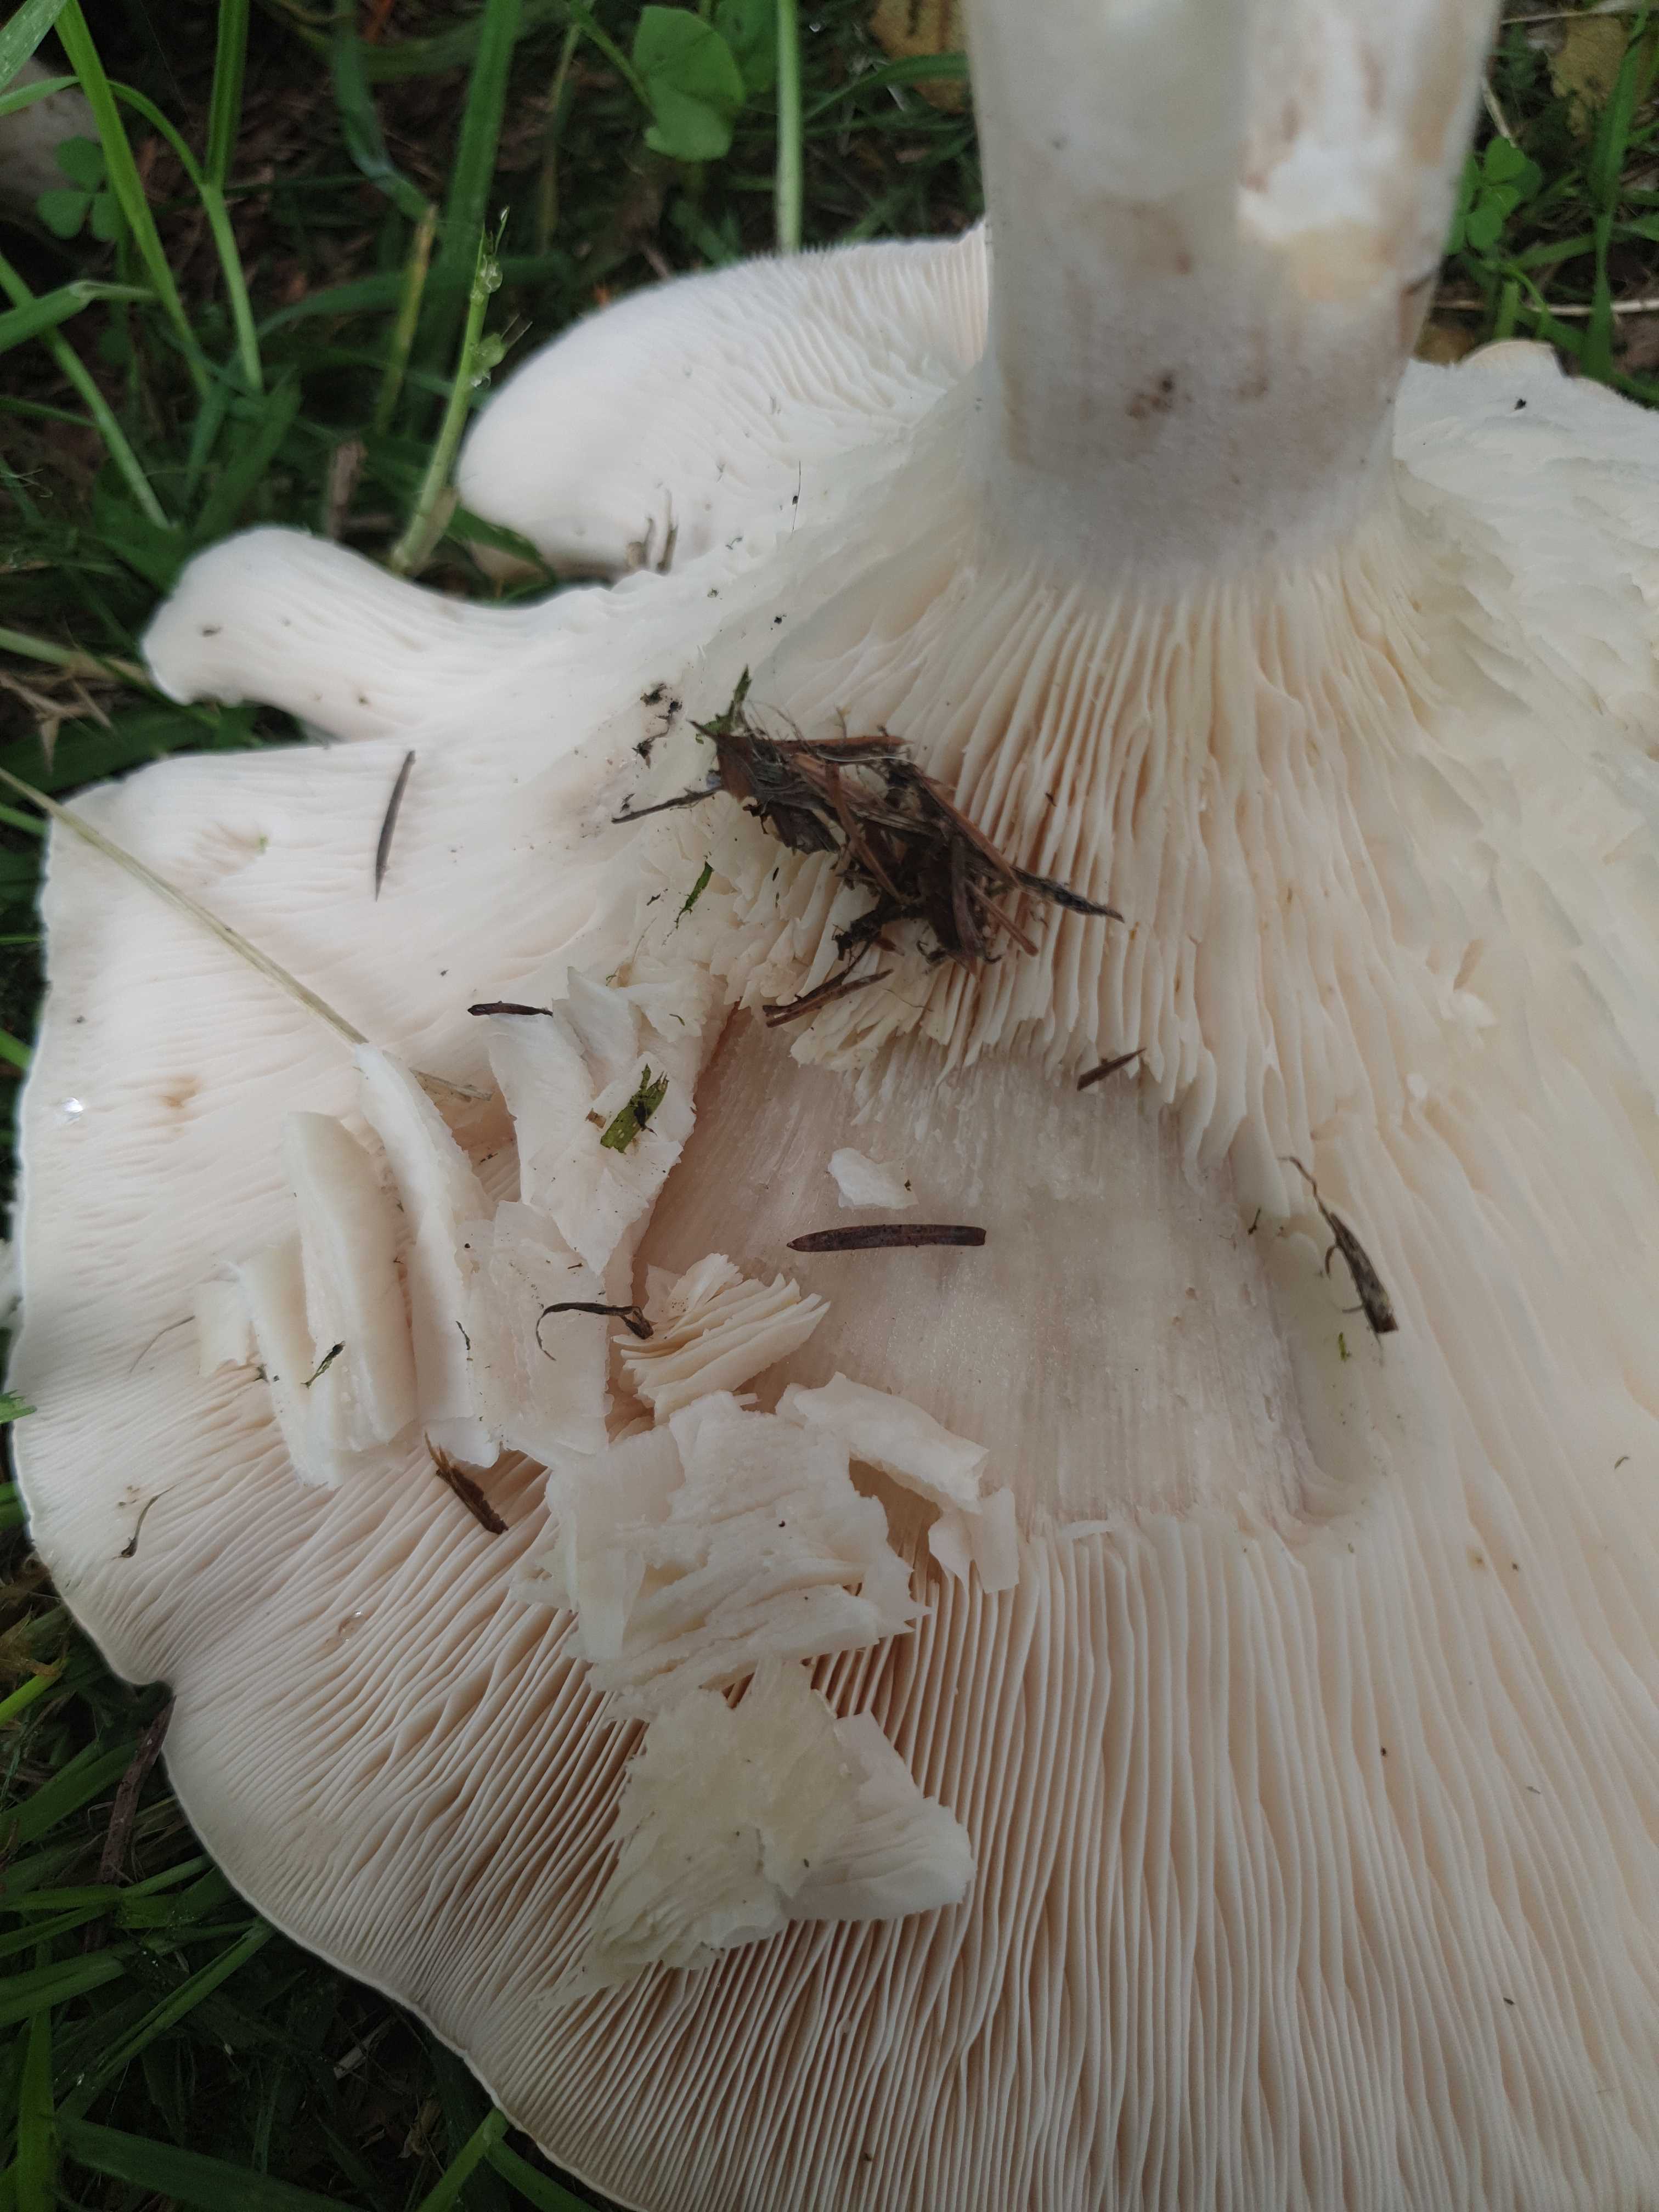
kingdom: Fungi
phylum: Basidiomycota
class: Agaricomycetes
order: Agaricales
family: Tricholomataceae
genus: Aspropaxillus
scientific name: Aspropaxillus giganteus
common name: kæmpe-tragtridderhat
